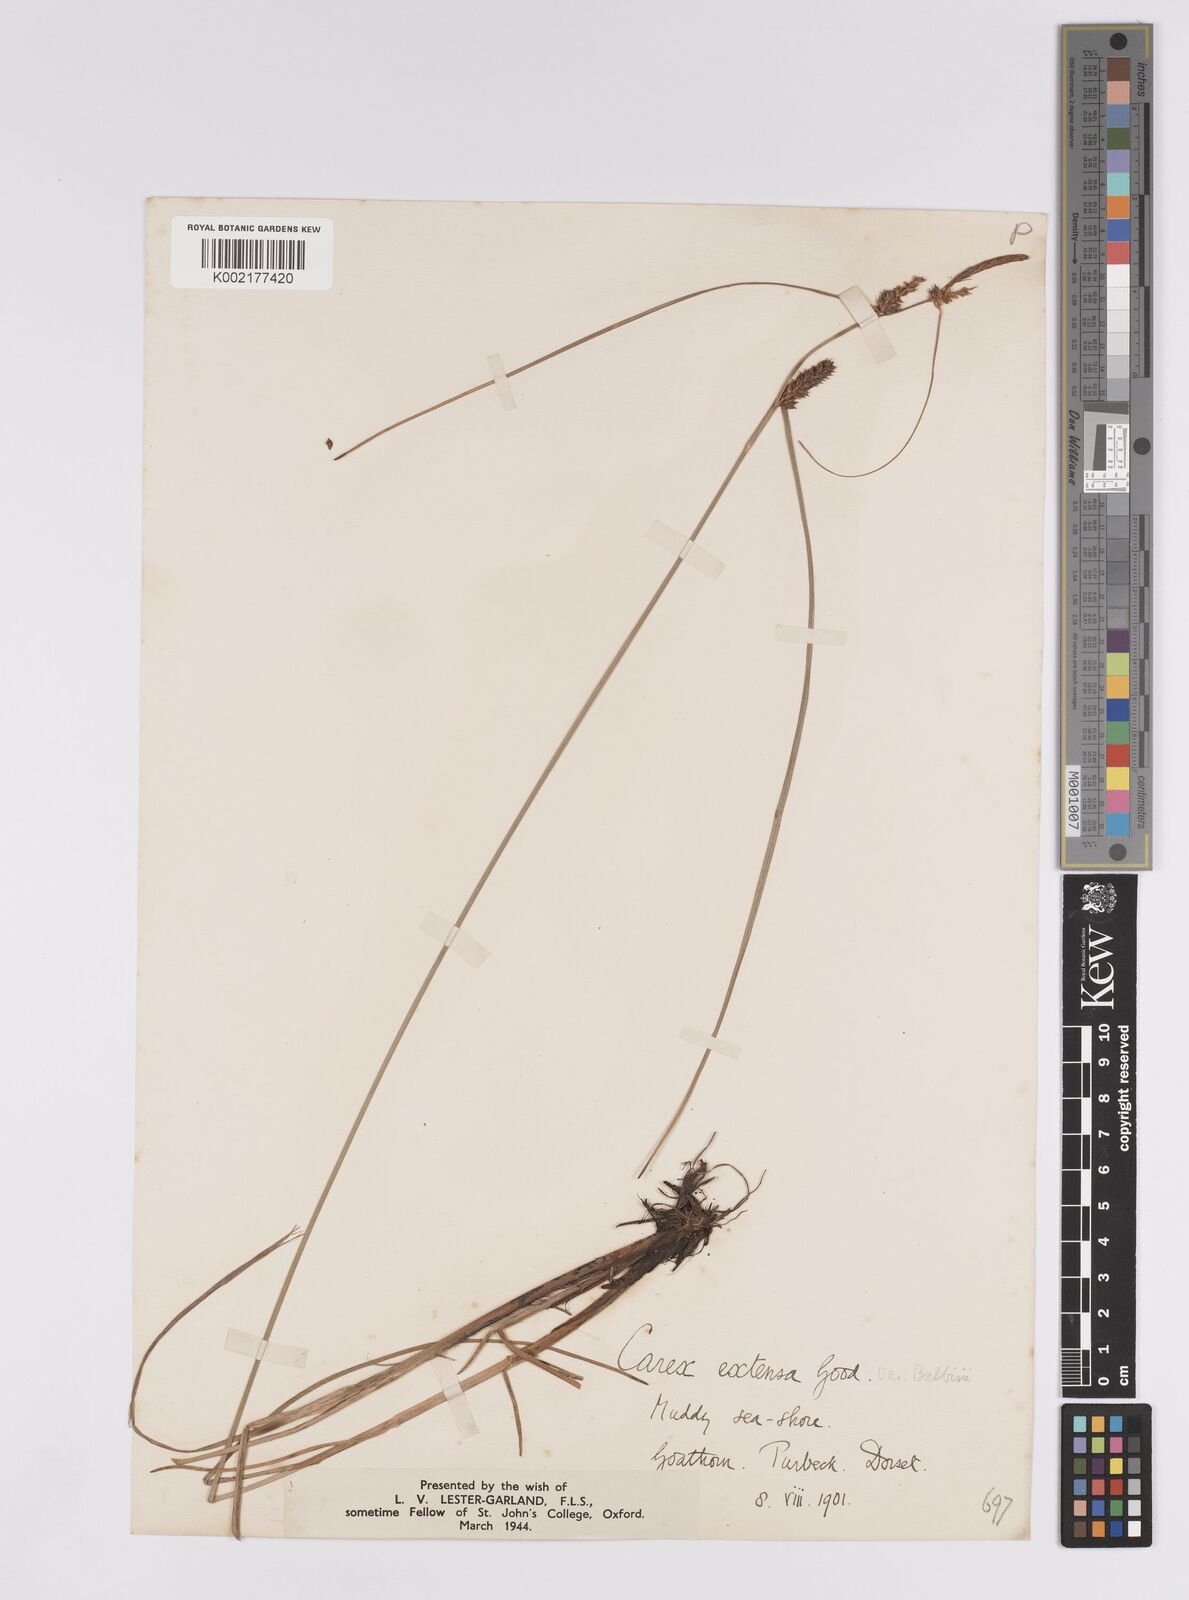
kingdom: Plantae
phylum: Tracheophyta
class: Liliopsida
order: Poales
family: Cyperaceae
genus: Carex
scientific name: Carex extensa
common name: Long-bracted sedge
